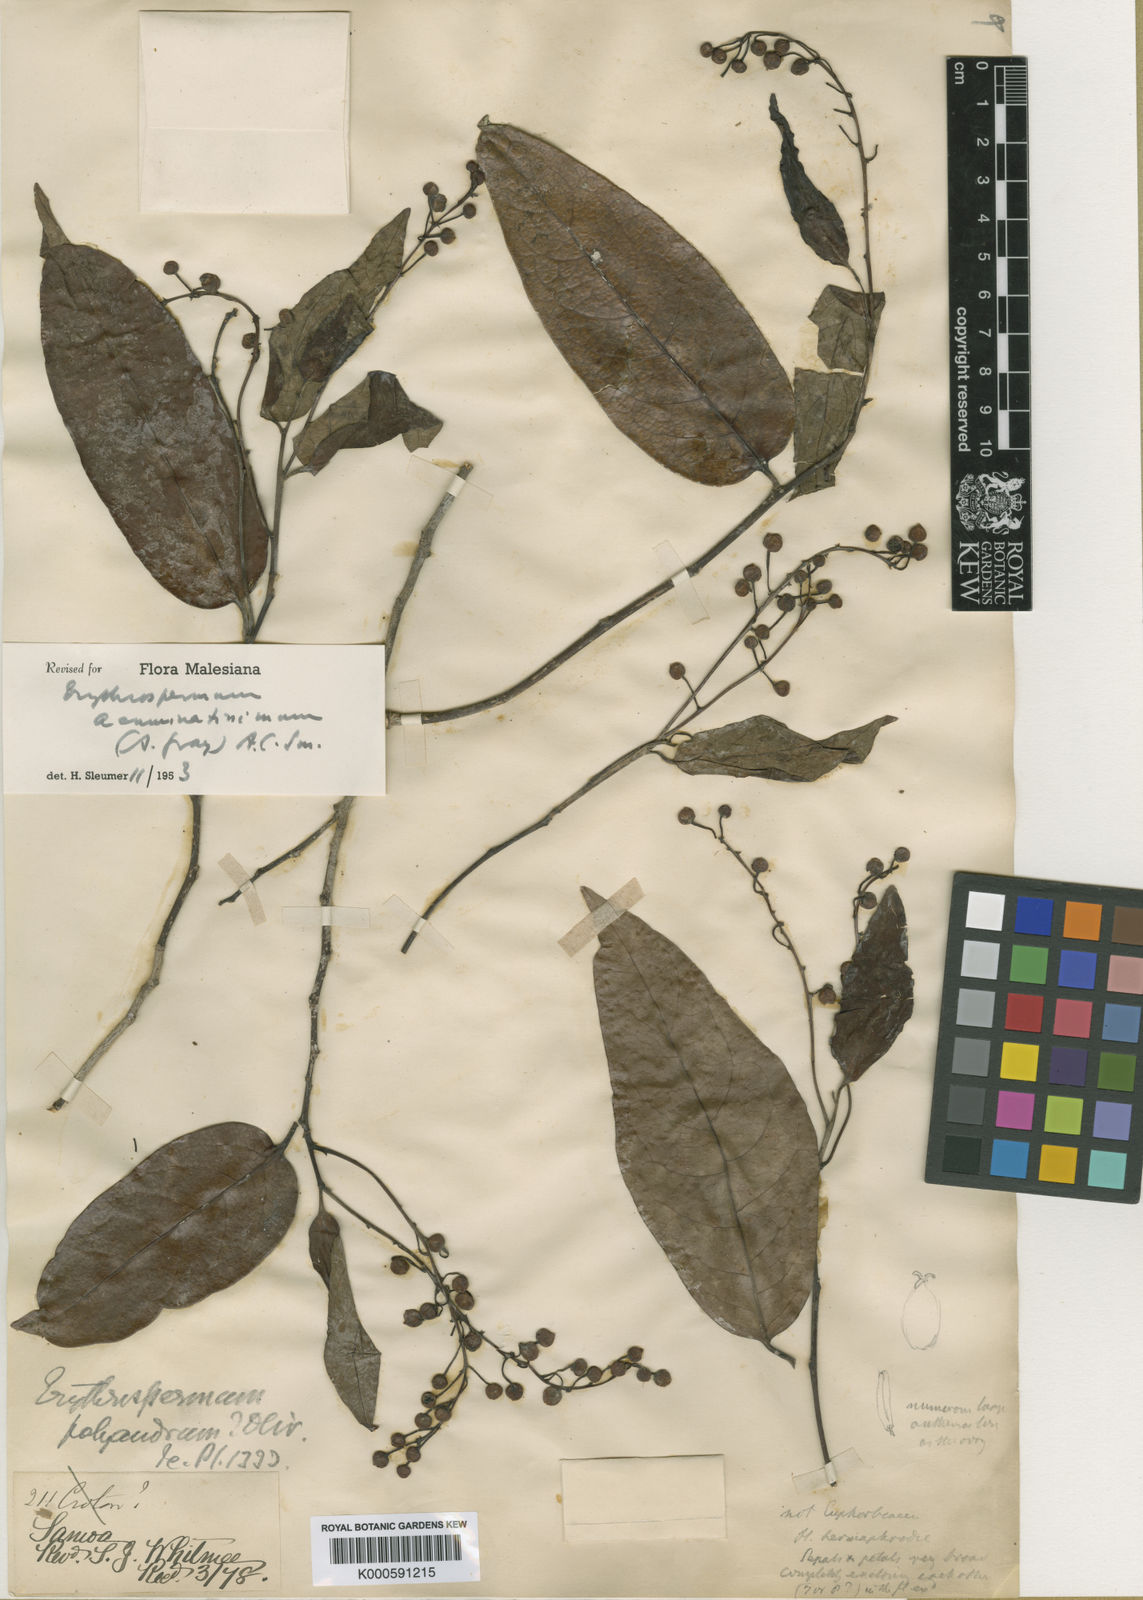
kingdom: Plantae
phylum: Tracheophyta
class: Magnoliopsida
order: Malpighiales
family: Achariaceae
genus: Erythrospermum
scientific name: Erythrospermum acuminatissimum
